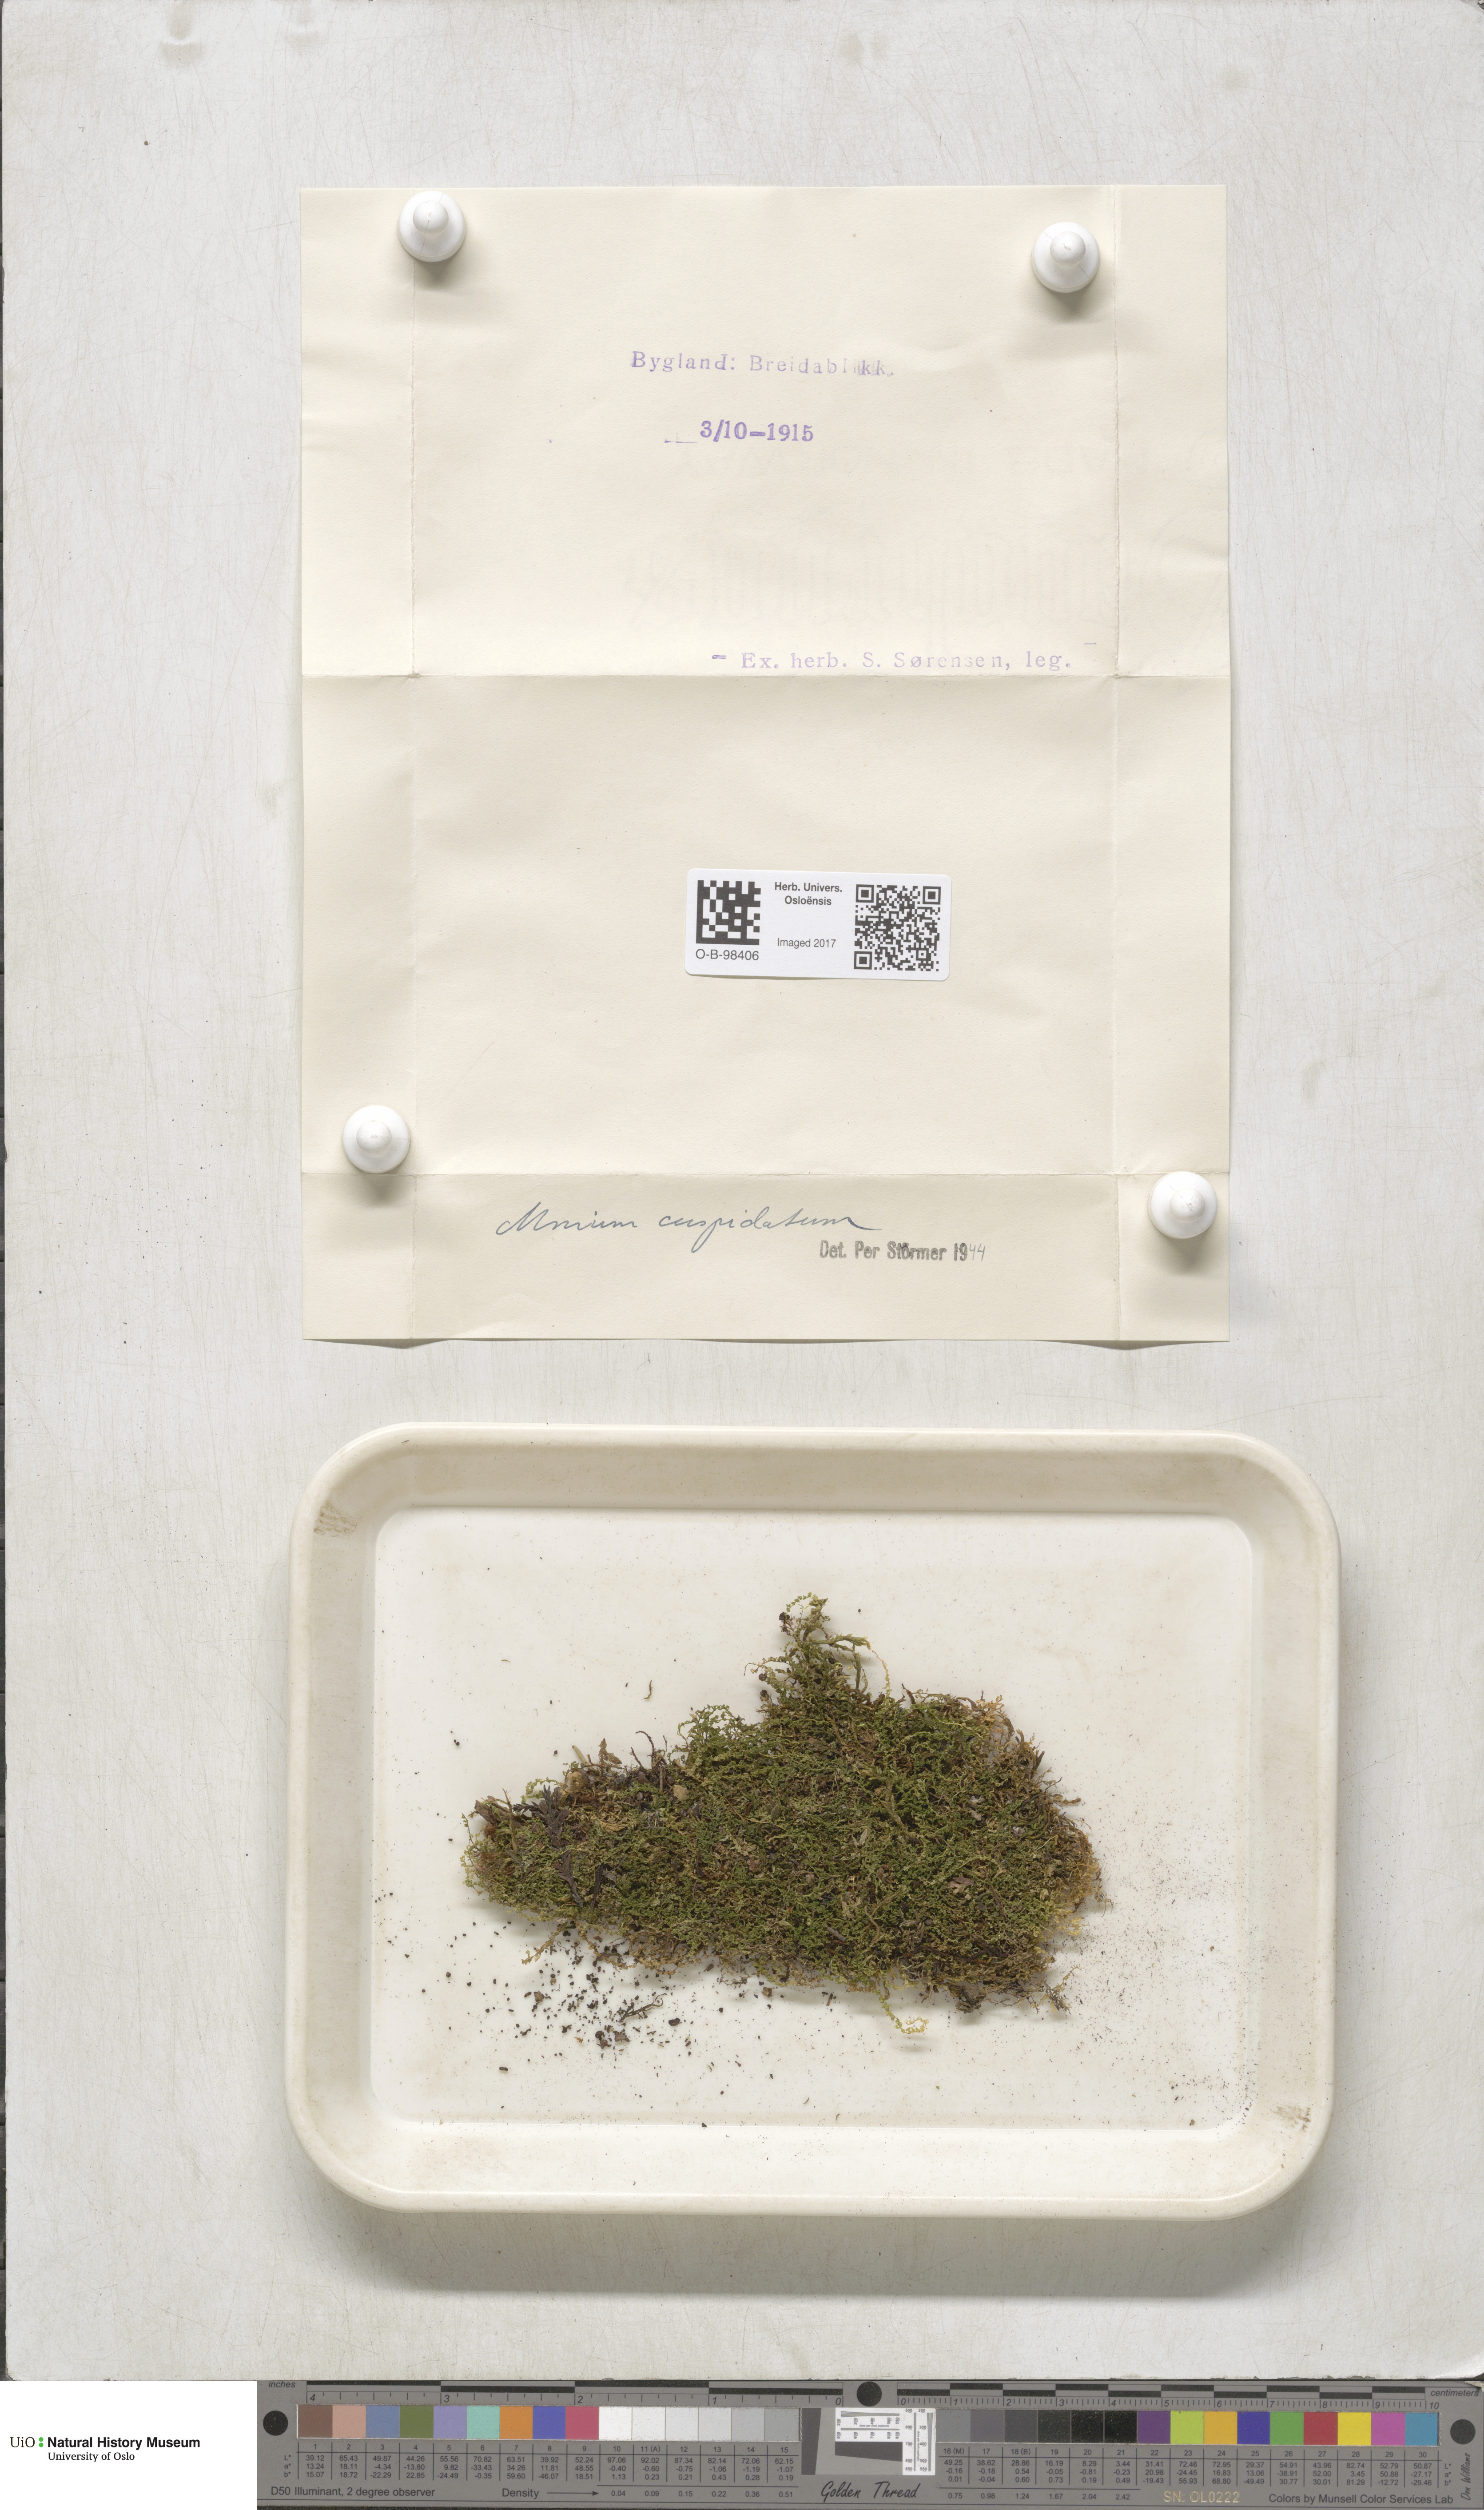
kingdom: Plantae
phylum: Bryophyta
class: Bryopsida
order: Bryales
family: Mniaceae
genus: Plagiomnium
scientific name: Plagiomnium cuspidatum
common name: Woodsy leafy moss
